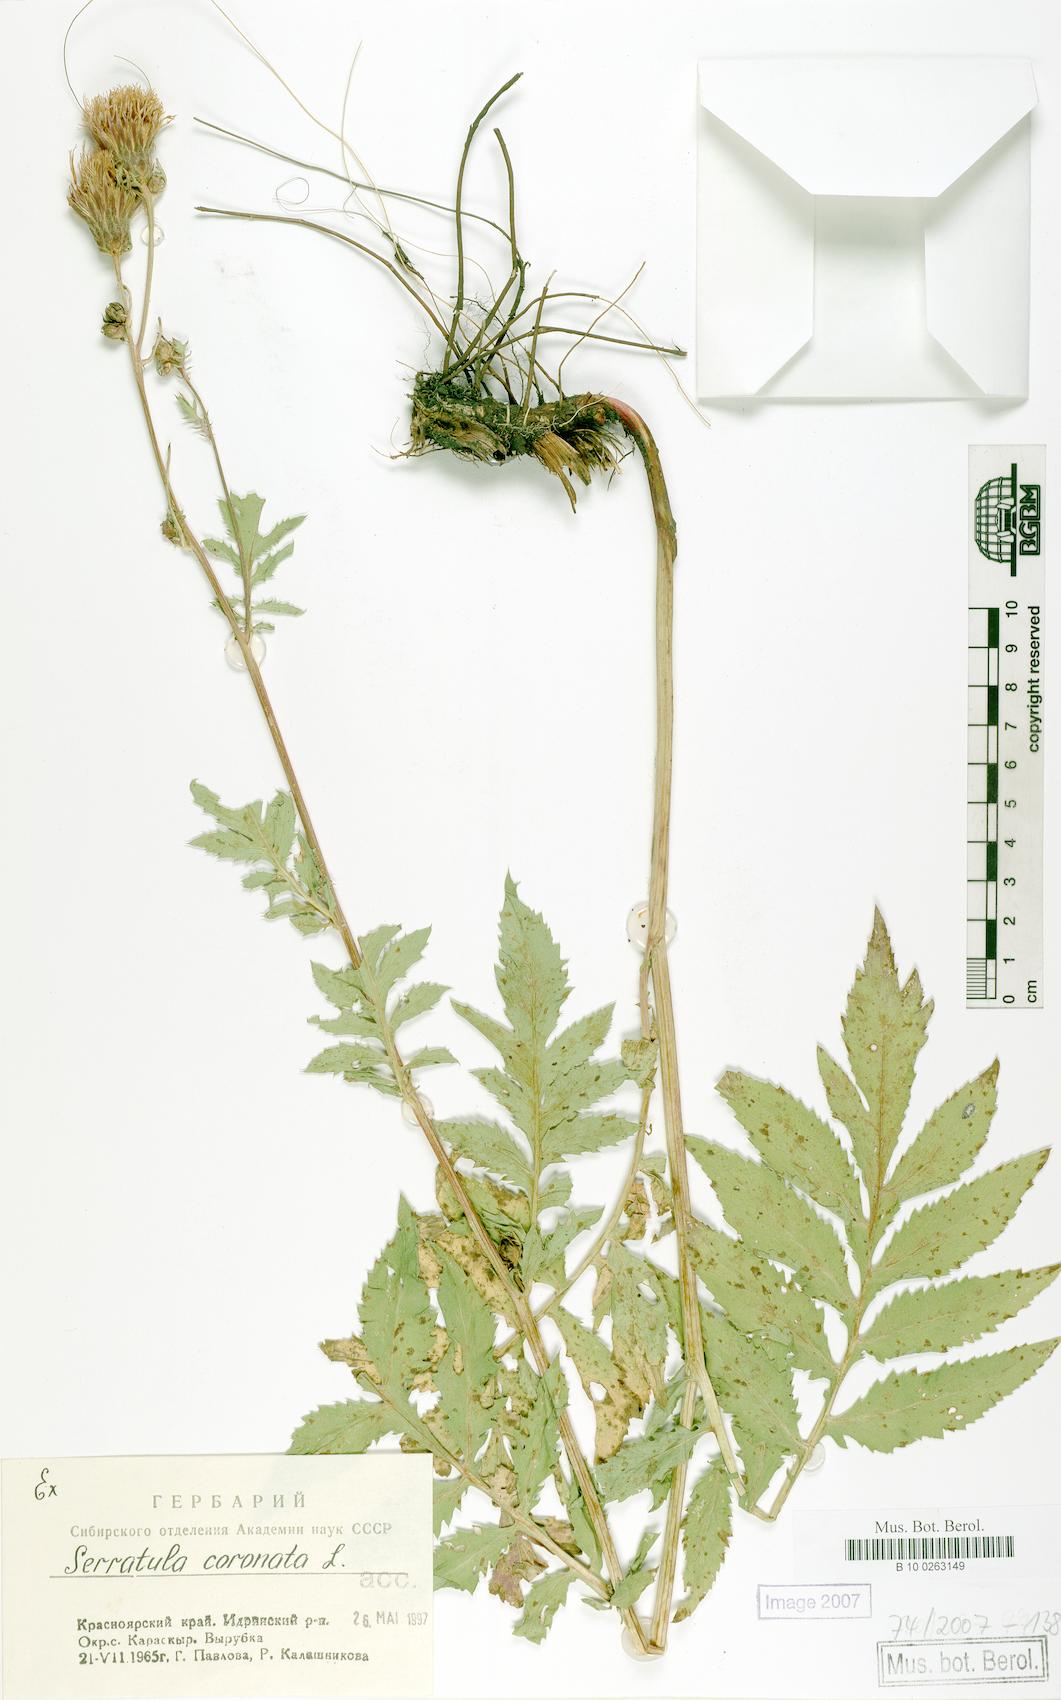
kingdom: Plantae
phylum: Tracheophyta
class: Magnoliopsida
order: Asterales
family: Asteraceae
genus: Serratula
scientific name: Serratula coronata
